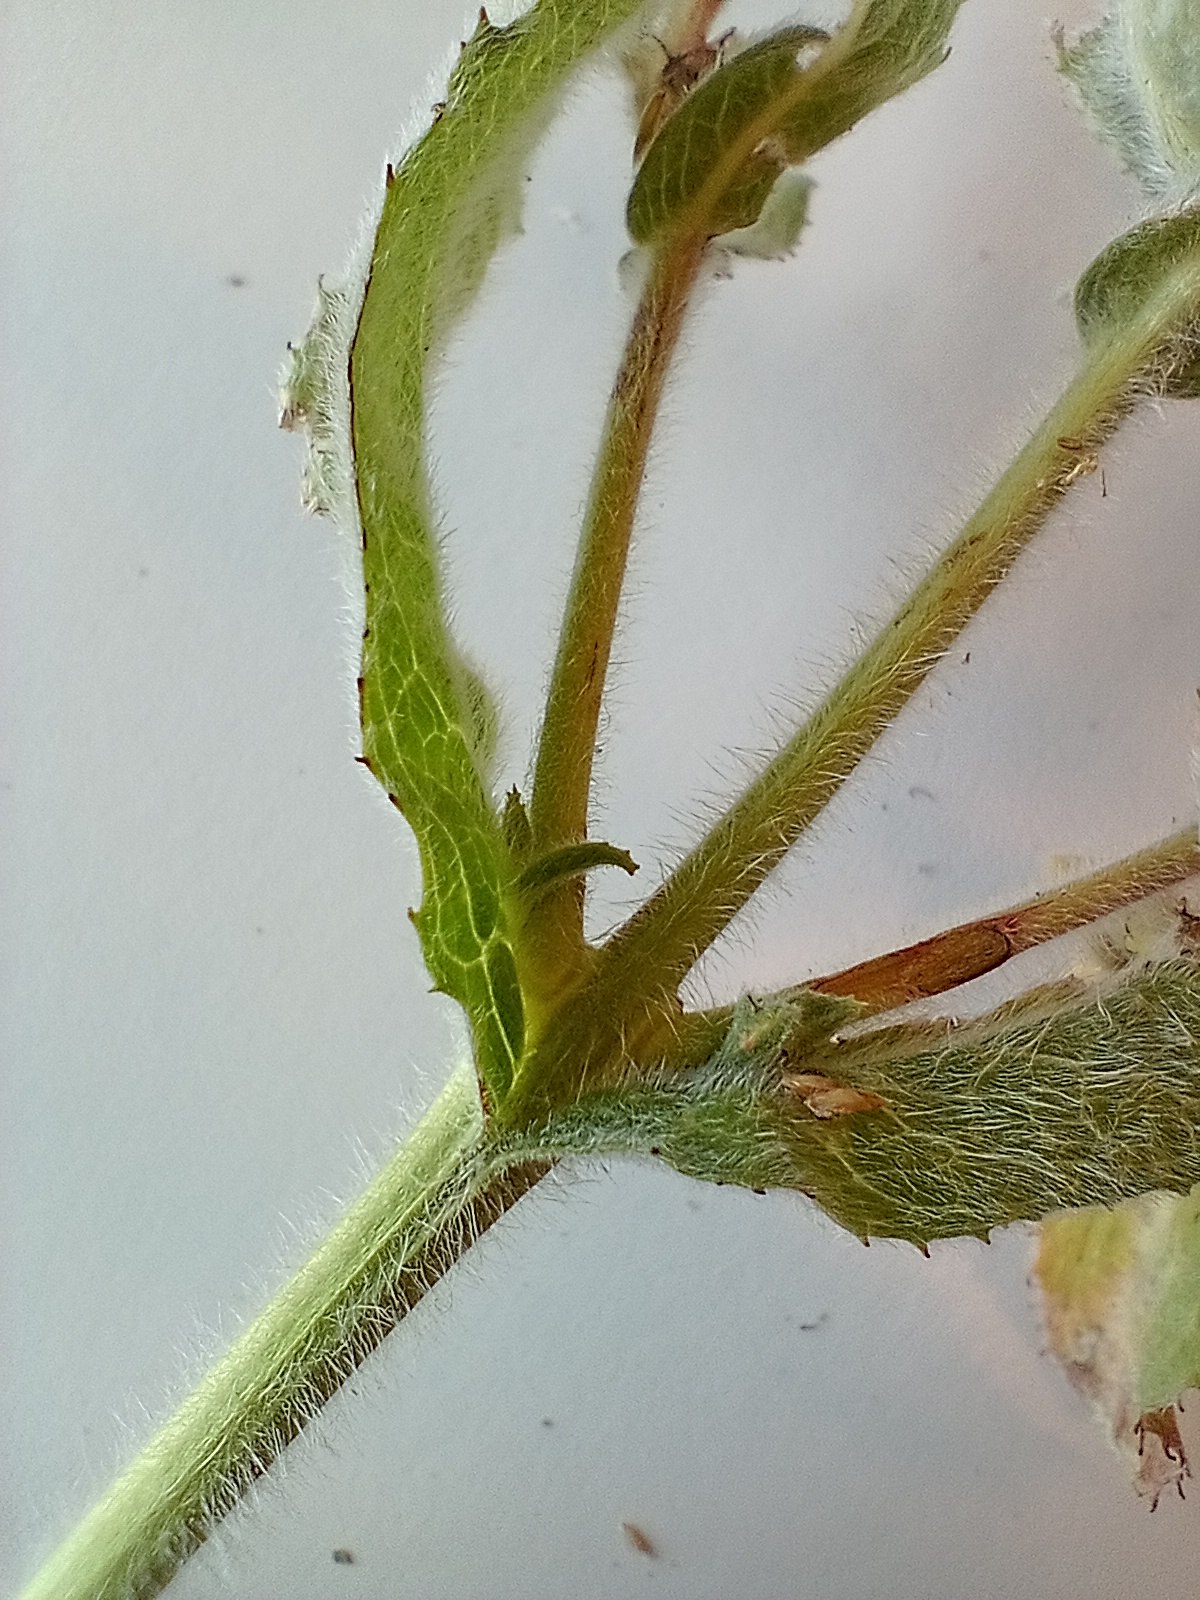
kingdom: Plantae
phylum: Tracheophyta
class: Magnoliopsida
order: Myrtales
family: Onagraceae
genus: Epilobium
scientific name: Epilobium hirsutum
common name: Lådden dueurt
